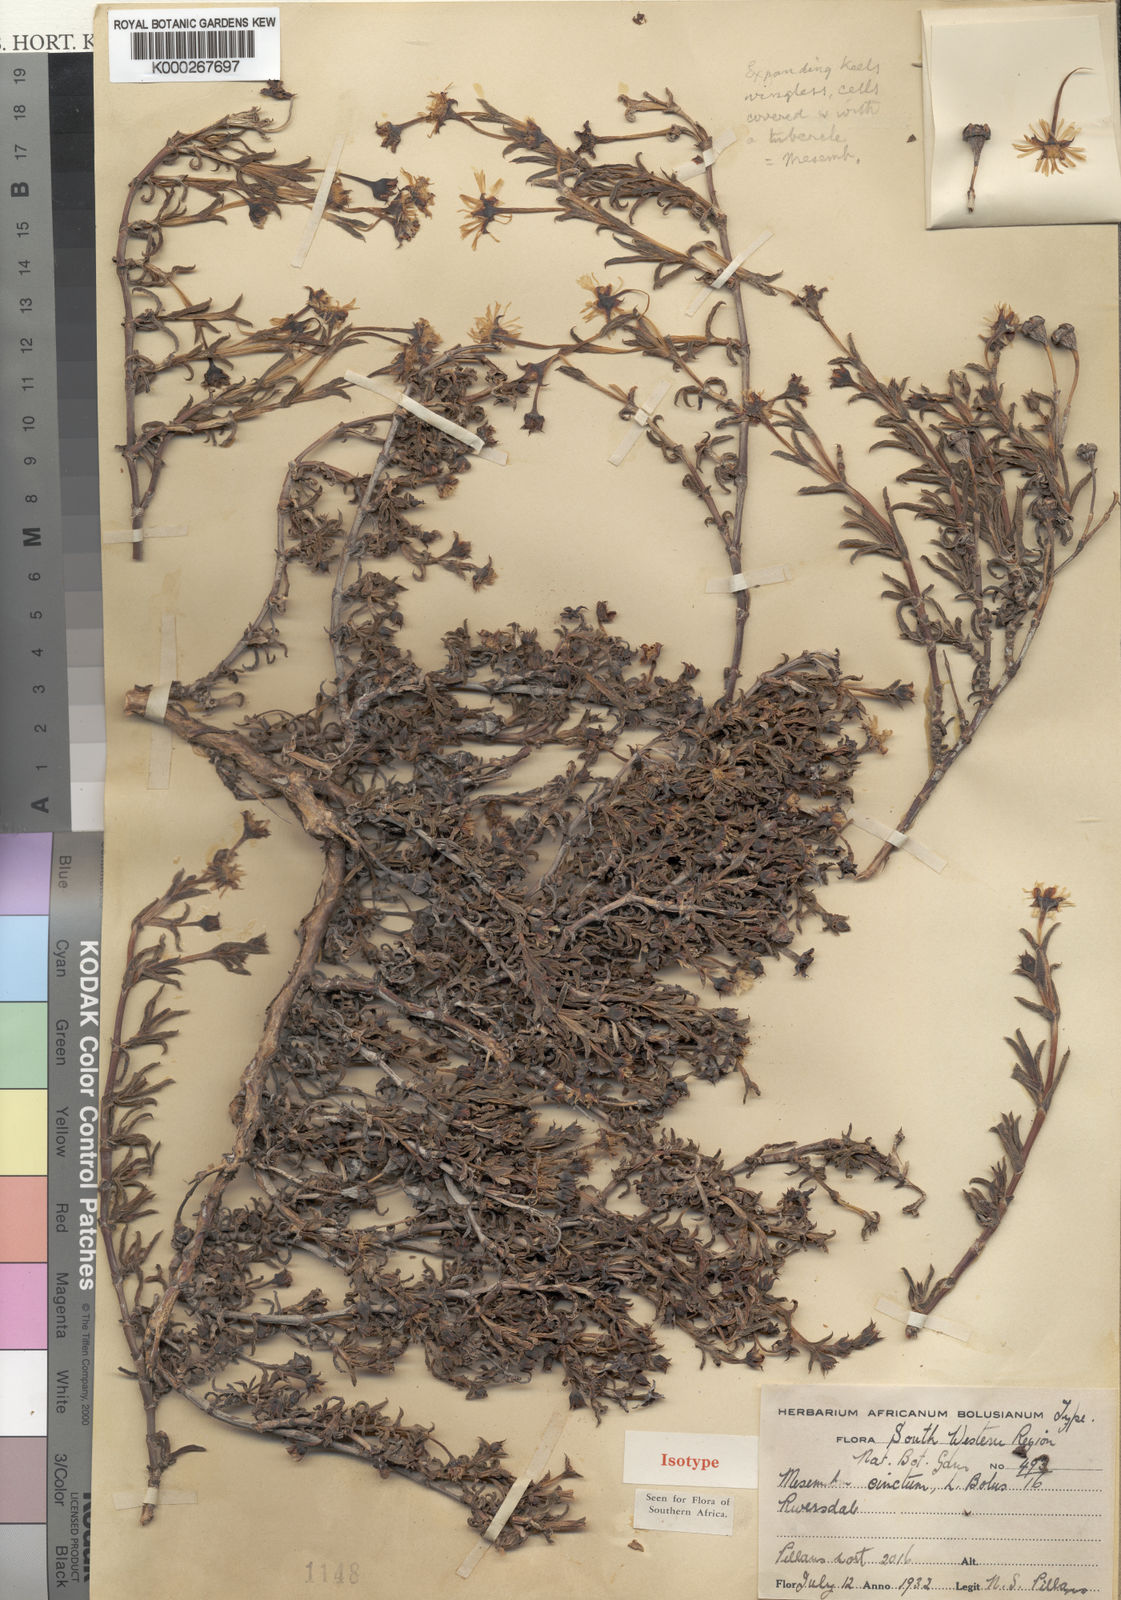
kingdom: Plantae
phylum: Tracheophyta
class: Magnoliopsida
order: Caryophyllales
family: Aizoaceae
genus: Ruschia
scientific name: Ruschia cincta
